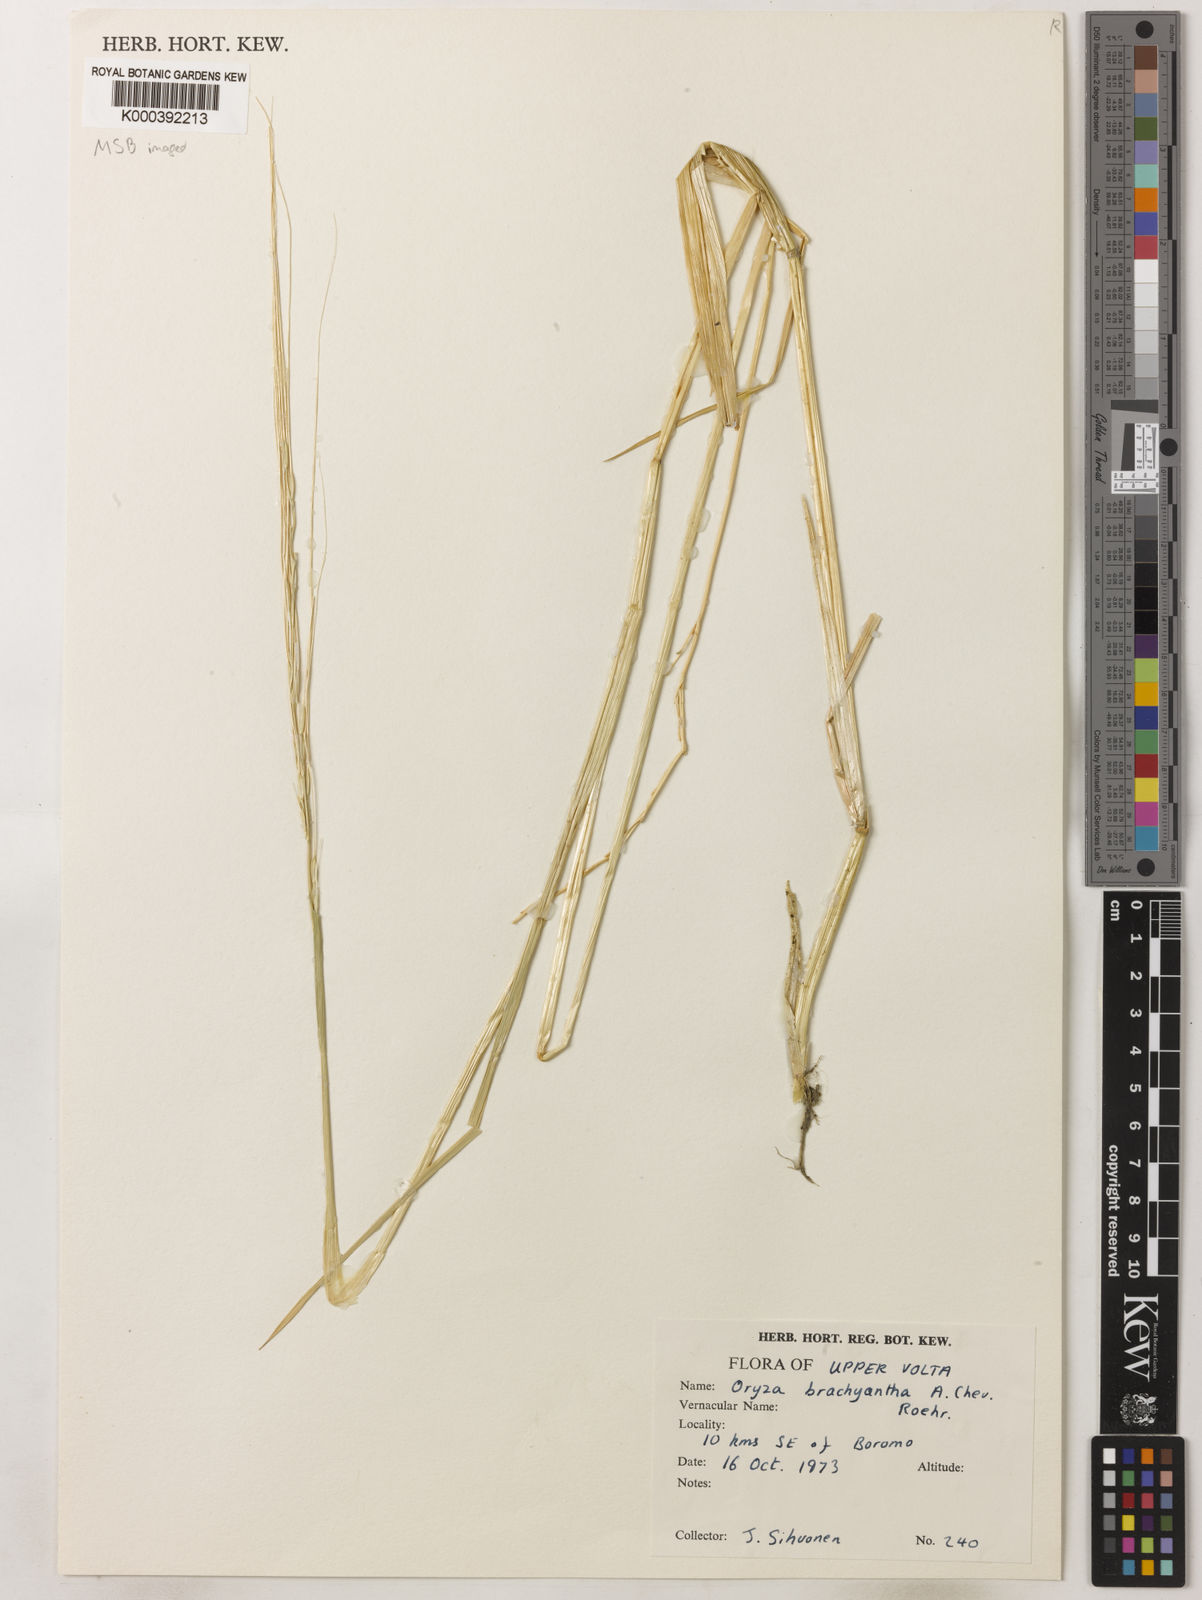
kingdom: Plantae
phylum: Tracheophyta
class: Liliopsida
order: Poales
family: Poaceae
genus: Oryza
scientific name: Oryza brachyantha
